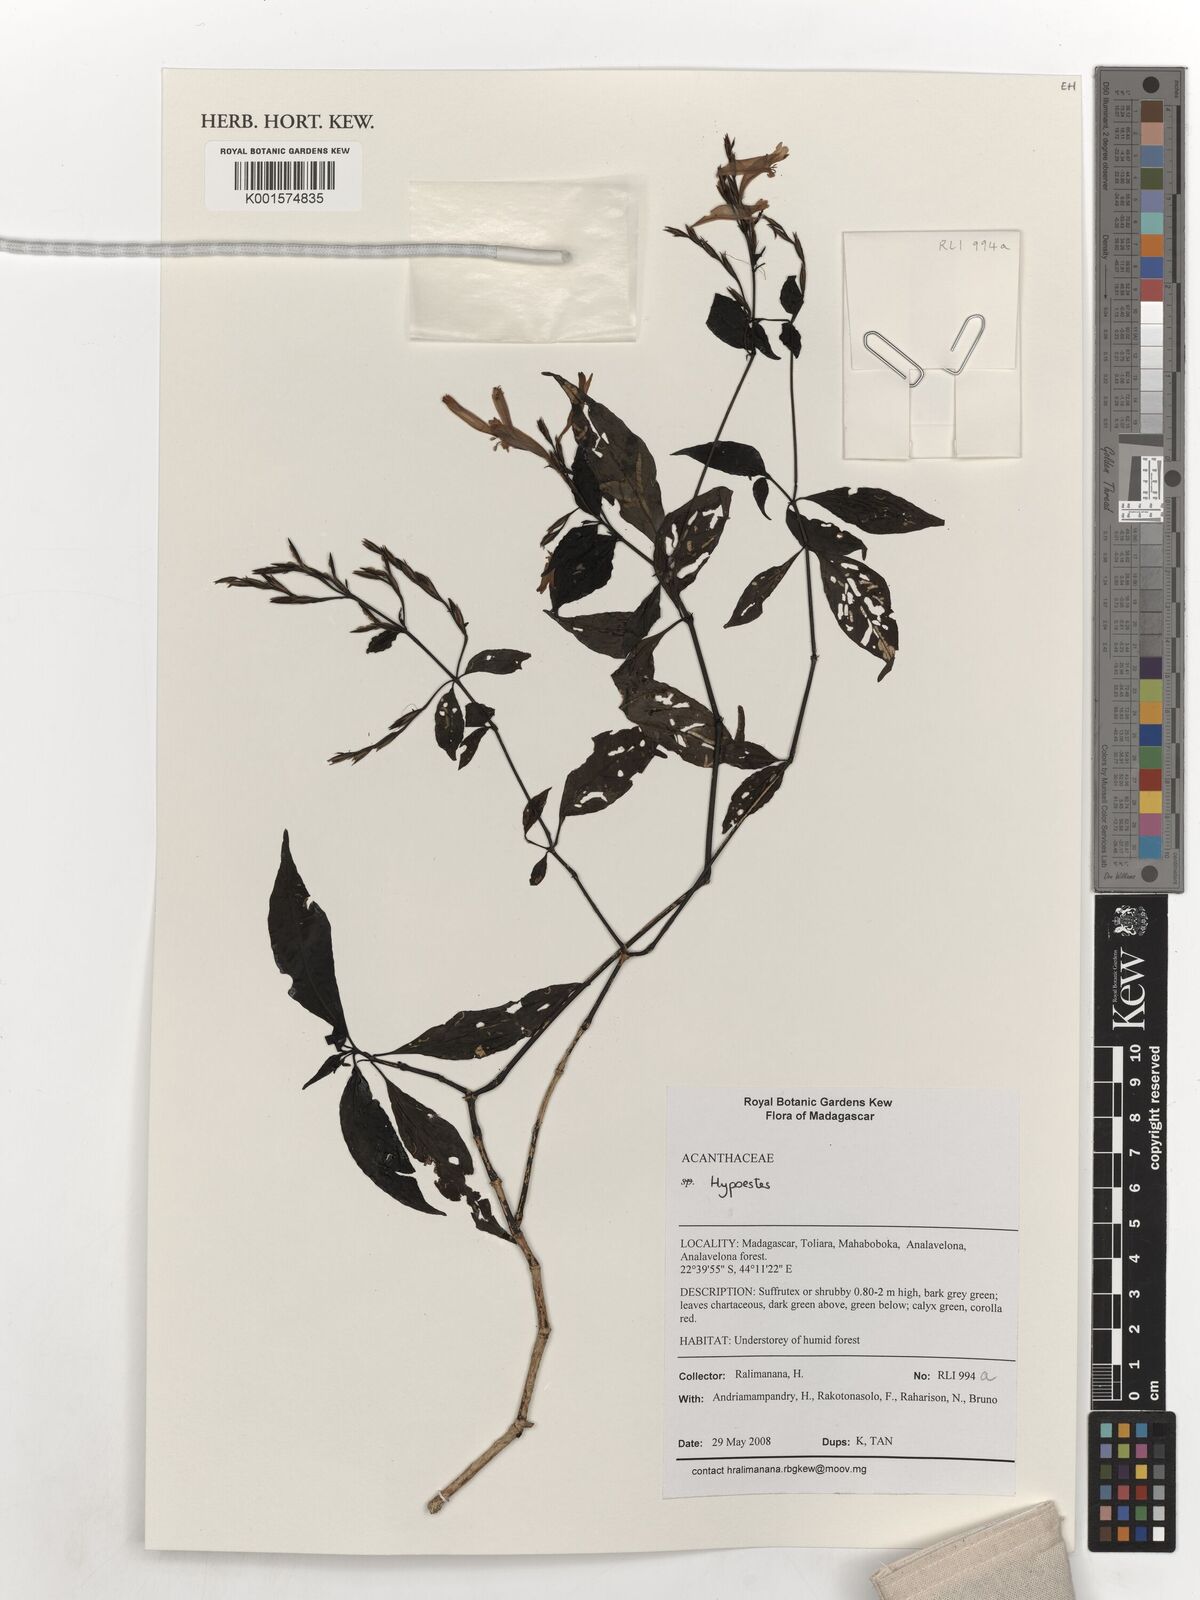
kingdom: Plantae
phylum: Tracheophyta
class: Magnoliopsida
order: Lamiales
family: Acanthaceae
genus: Hypoestes
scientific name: Hypoestes
